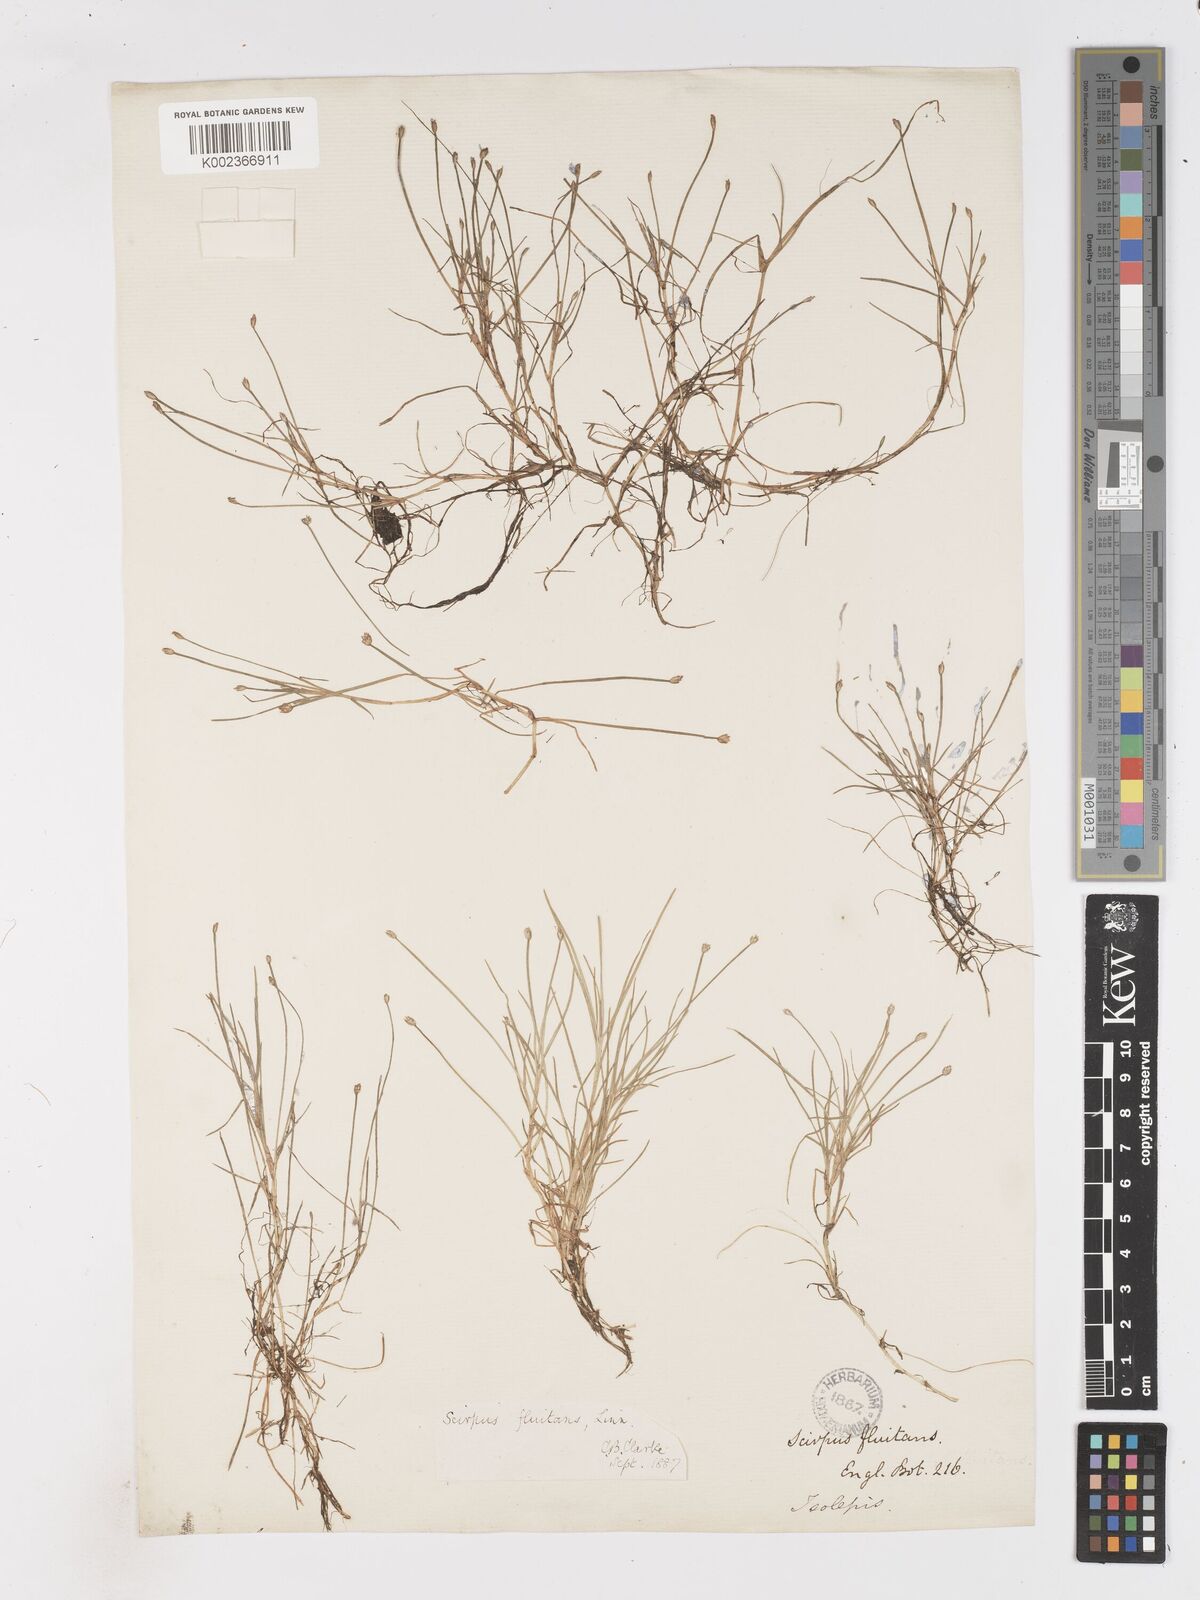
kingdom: Plantae
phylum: Tracheophyta
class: Liliopsida
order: Poales
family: Cyperaceae
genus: Isolepis
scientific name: Isolepis fluitans
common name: Floating club-rush
